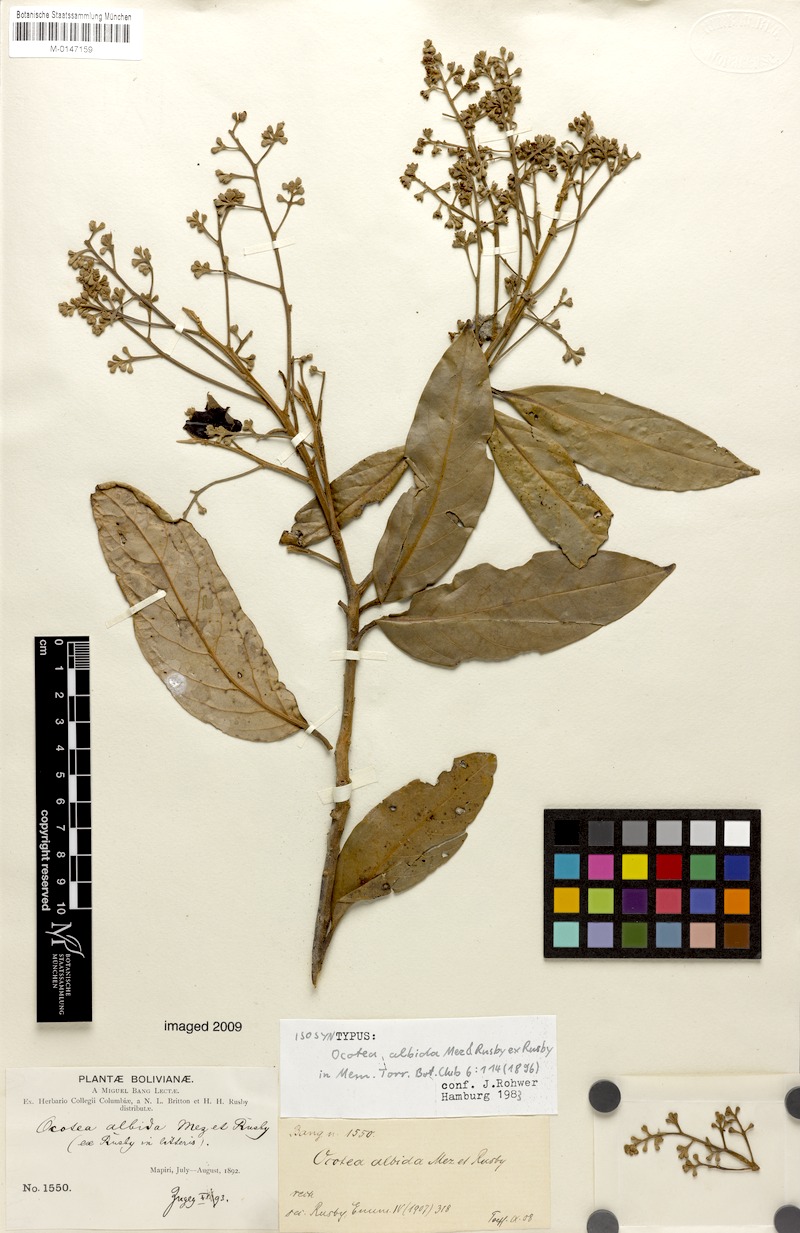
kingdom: Plantae
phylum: Tracheophyta
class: Magnoliopsida
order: Laurales
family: Lauraceae
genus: Ocotea
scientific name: Ocotea albida
